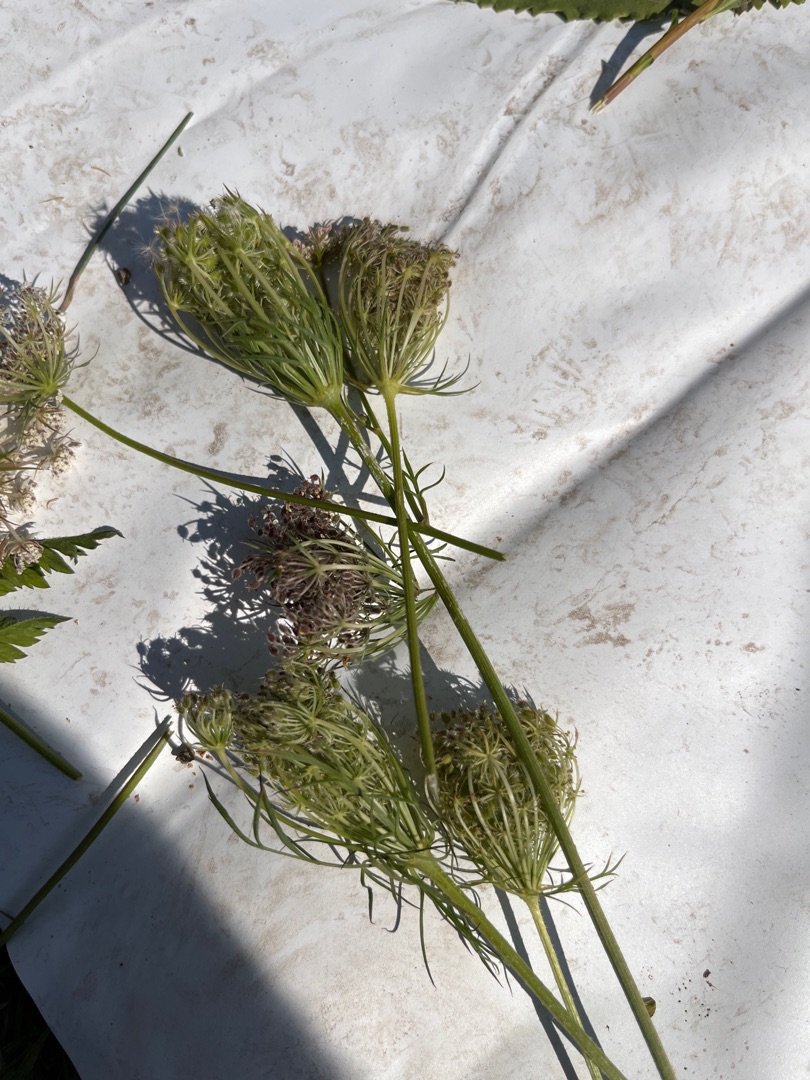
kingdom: Plantae
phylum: Tracheophyta
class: Magnoliopsida
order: Apiales
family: Apiaceae
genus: Daucus
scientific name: Daucus carota
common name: Gulerod
